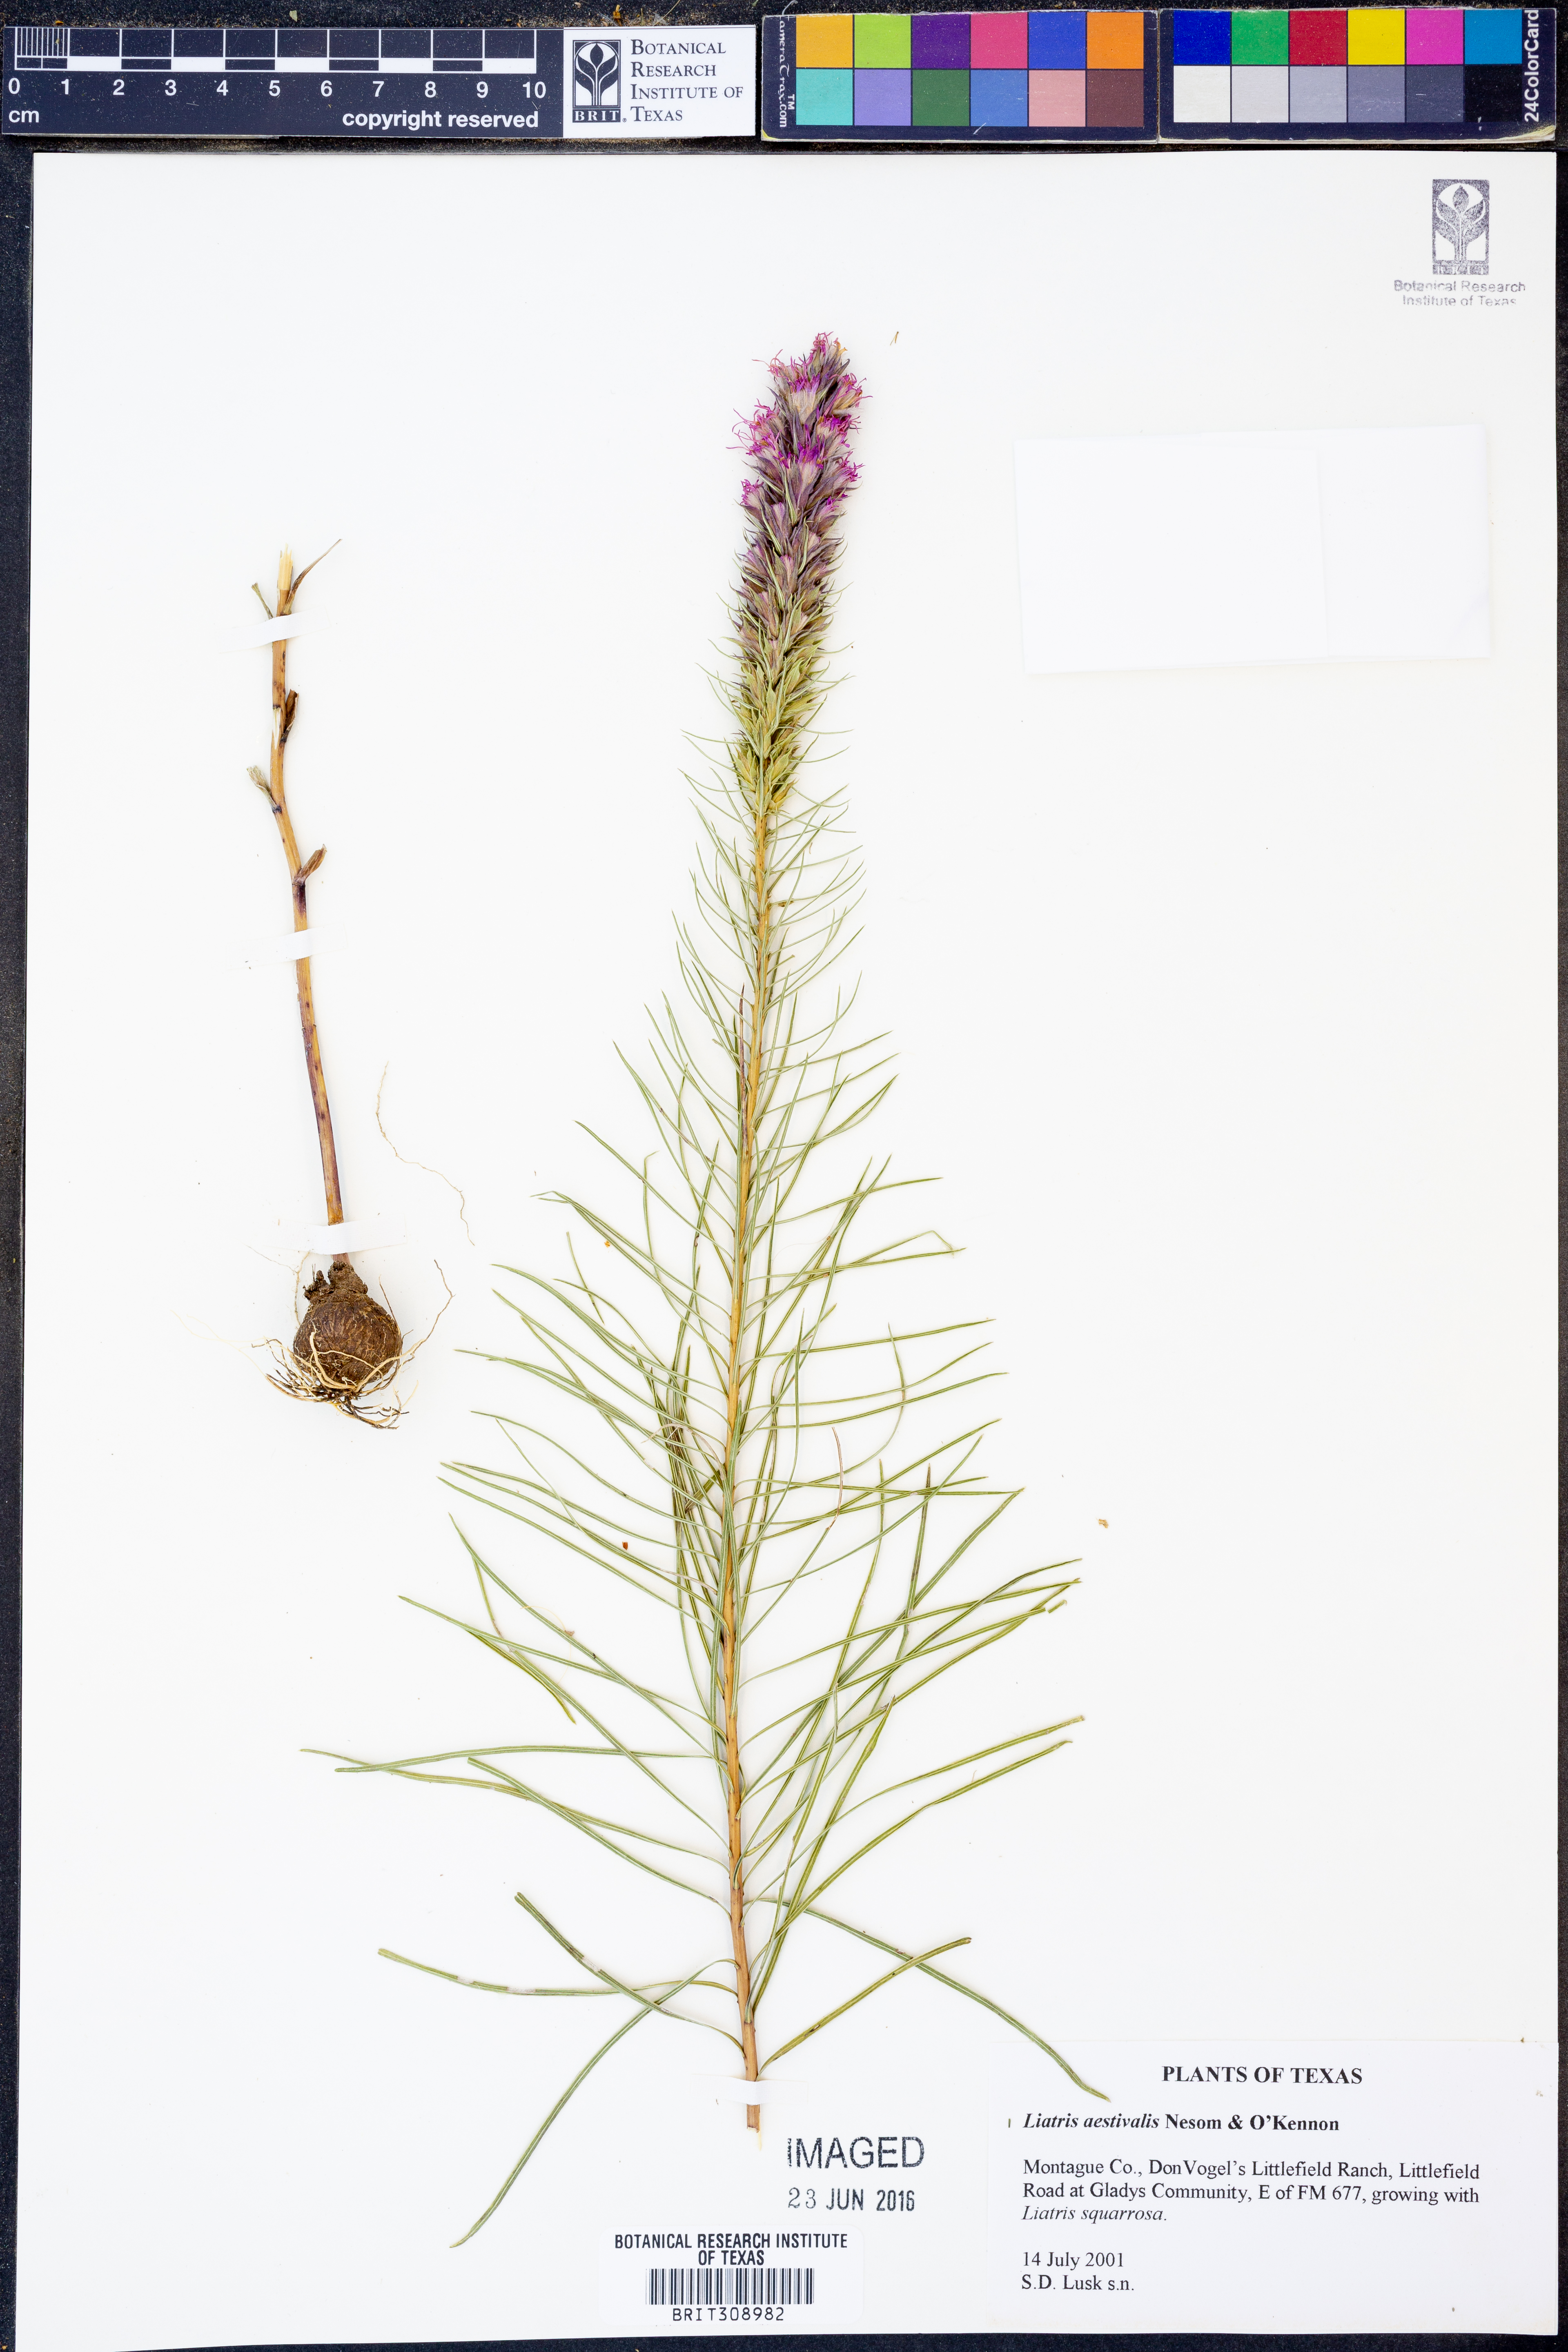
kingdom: Plantae
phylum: Tracheophyta
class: Magnoliopsida
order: Asterales
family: Asteraceae
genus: Liatris
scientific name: Liatris aestivalis
